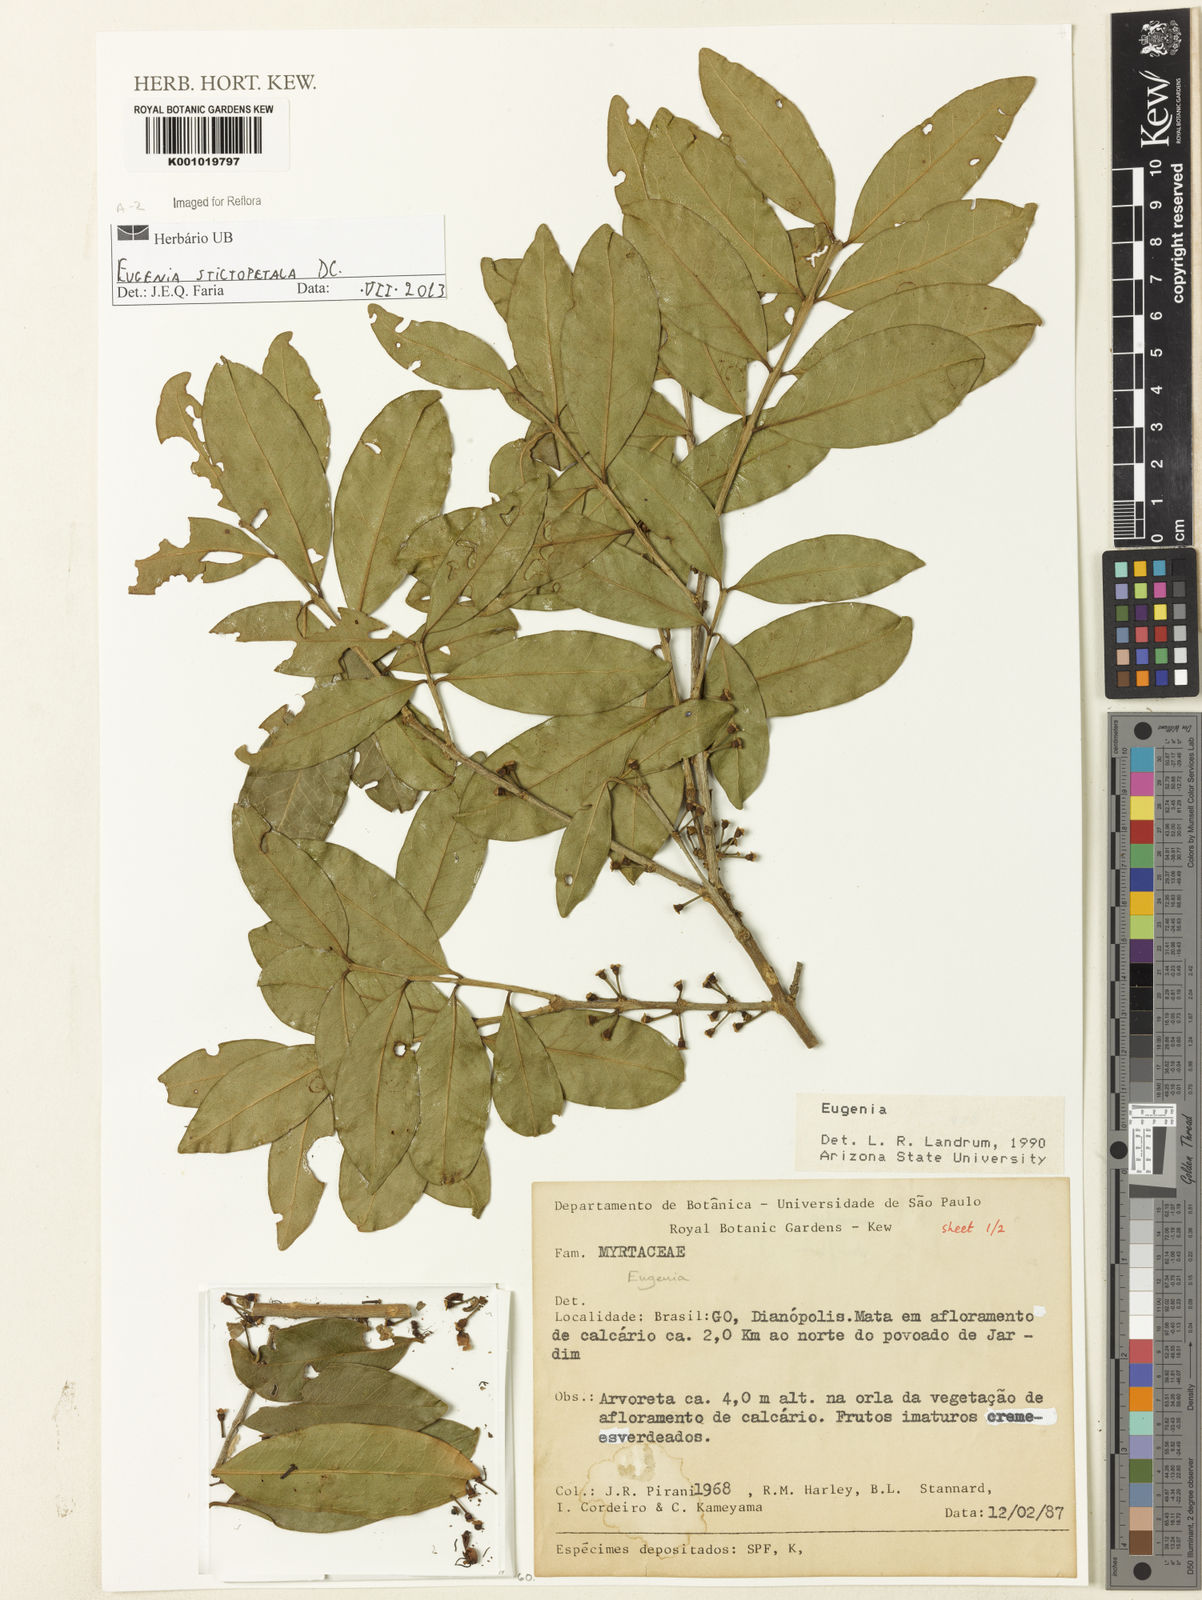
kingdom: Plantae
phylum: Tracheophyta
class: Magnoliopsida
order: Myrtales
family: Myrtaceae
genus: Eugenia
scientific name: Eugenia stictopetala
